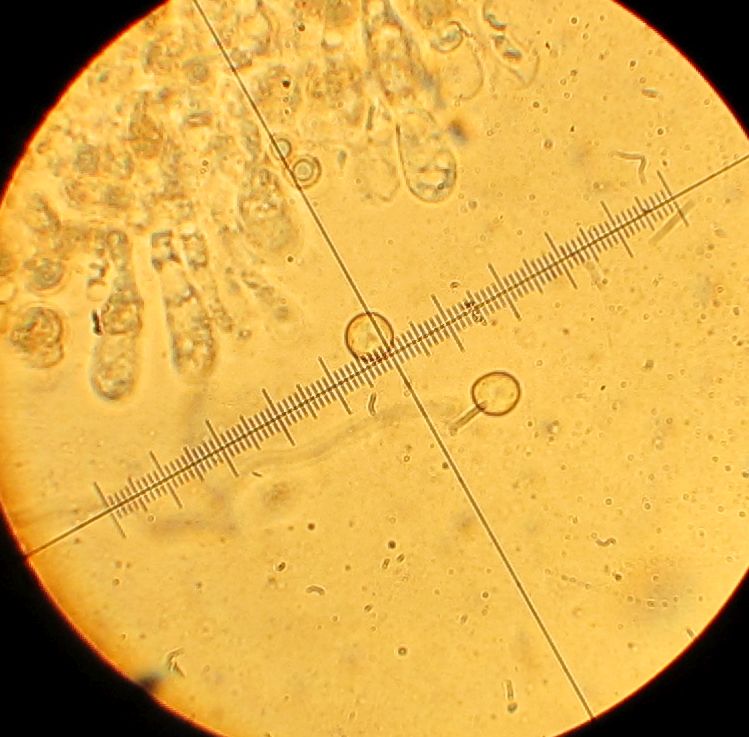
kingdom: Fungi
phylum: Basidiomycota
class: Agaricomycetes
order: Agaricales
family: Crepidotaceae
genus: Crepidotus
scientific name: Crepidotus cesatii
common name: almindelig muslingesvamp
